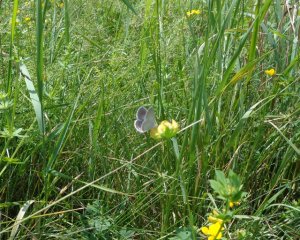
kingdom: Animalia
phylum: Arthropoda
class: Insecta
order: Lepidoptera
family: Lycaenidae
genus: Elkalyce
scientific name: Elkalyce comyntas
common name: Eastern Tailed-Blue
